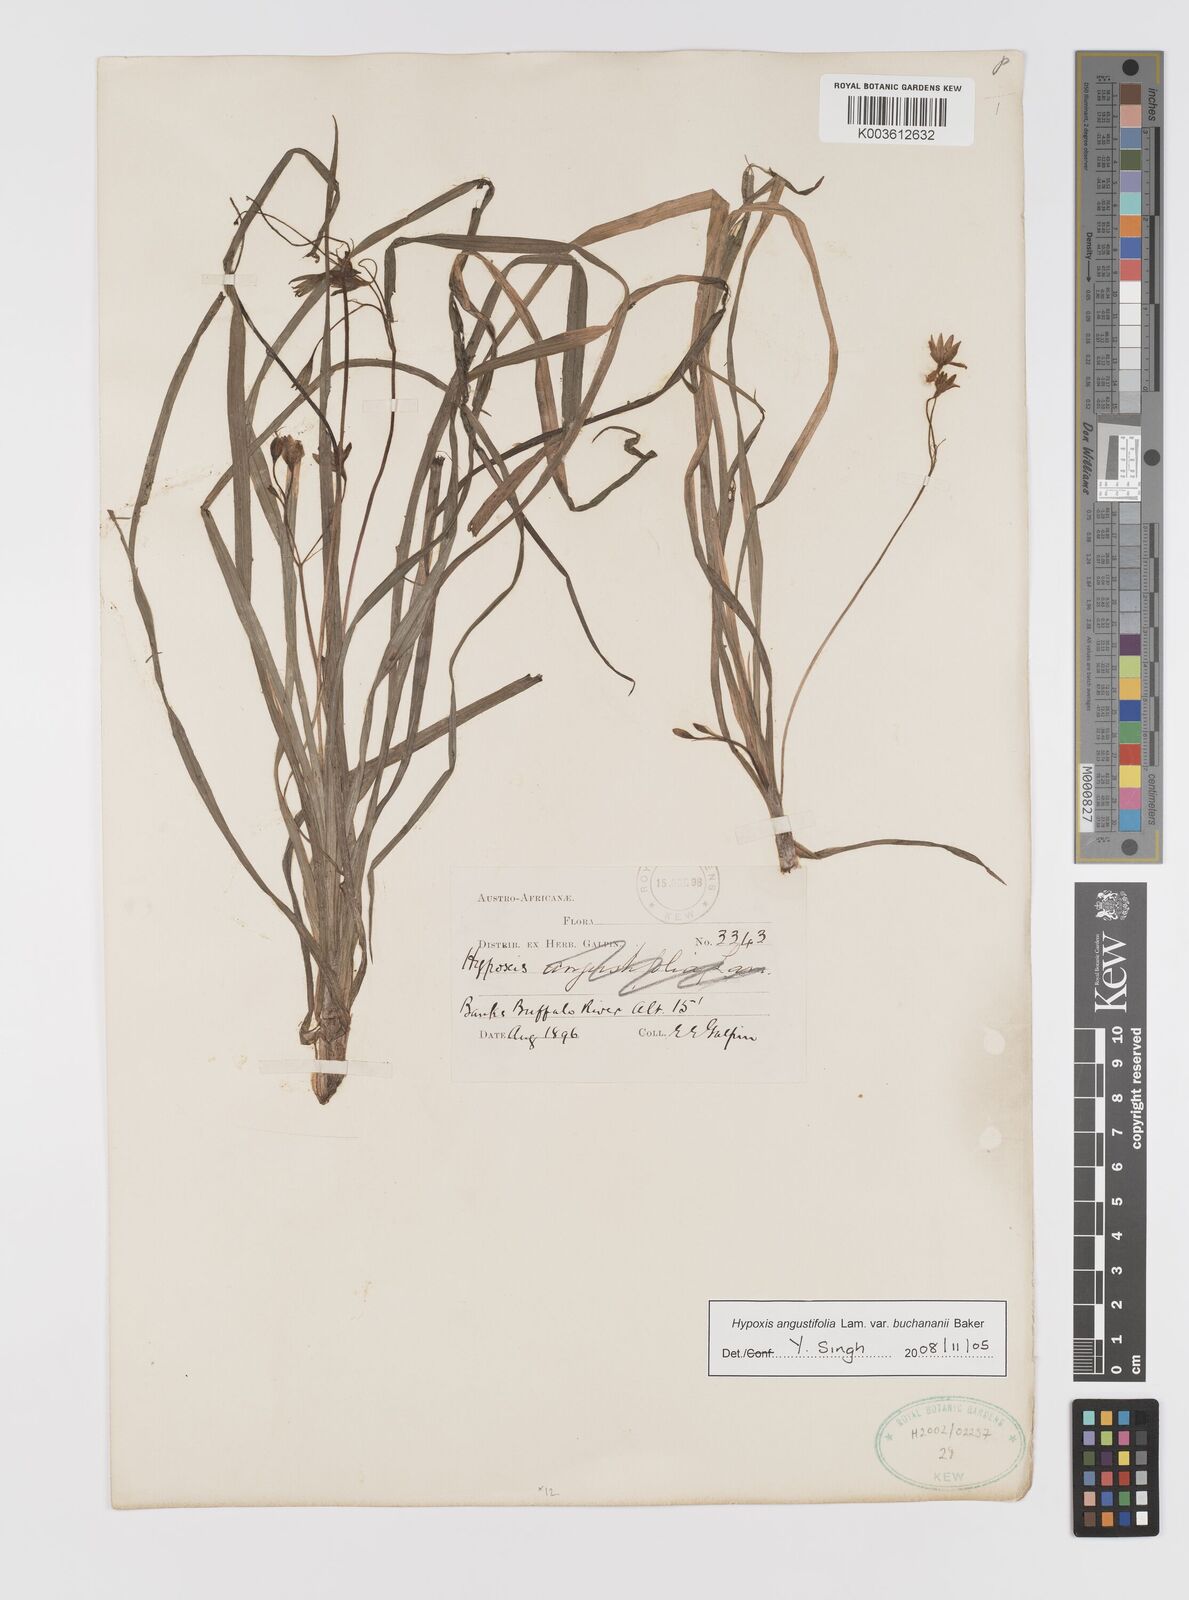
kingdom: Plantae
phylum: Tracheophyta
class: Liliopsida
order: Asparagales
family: Hypoxidaceae
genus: Hypoxis
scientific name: Hypoxis angustifolia
